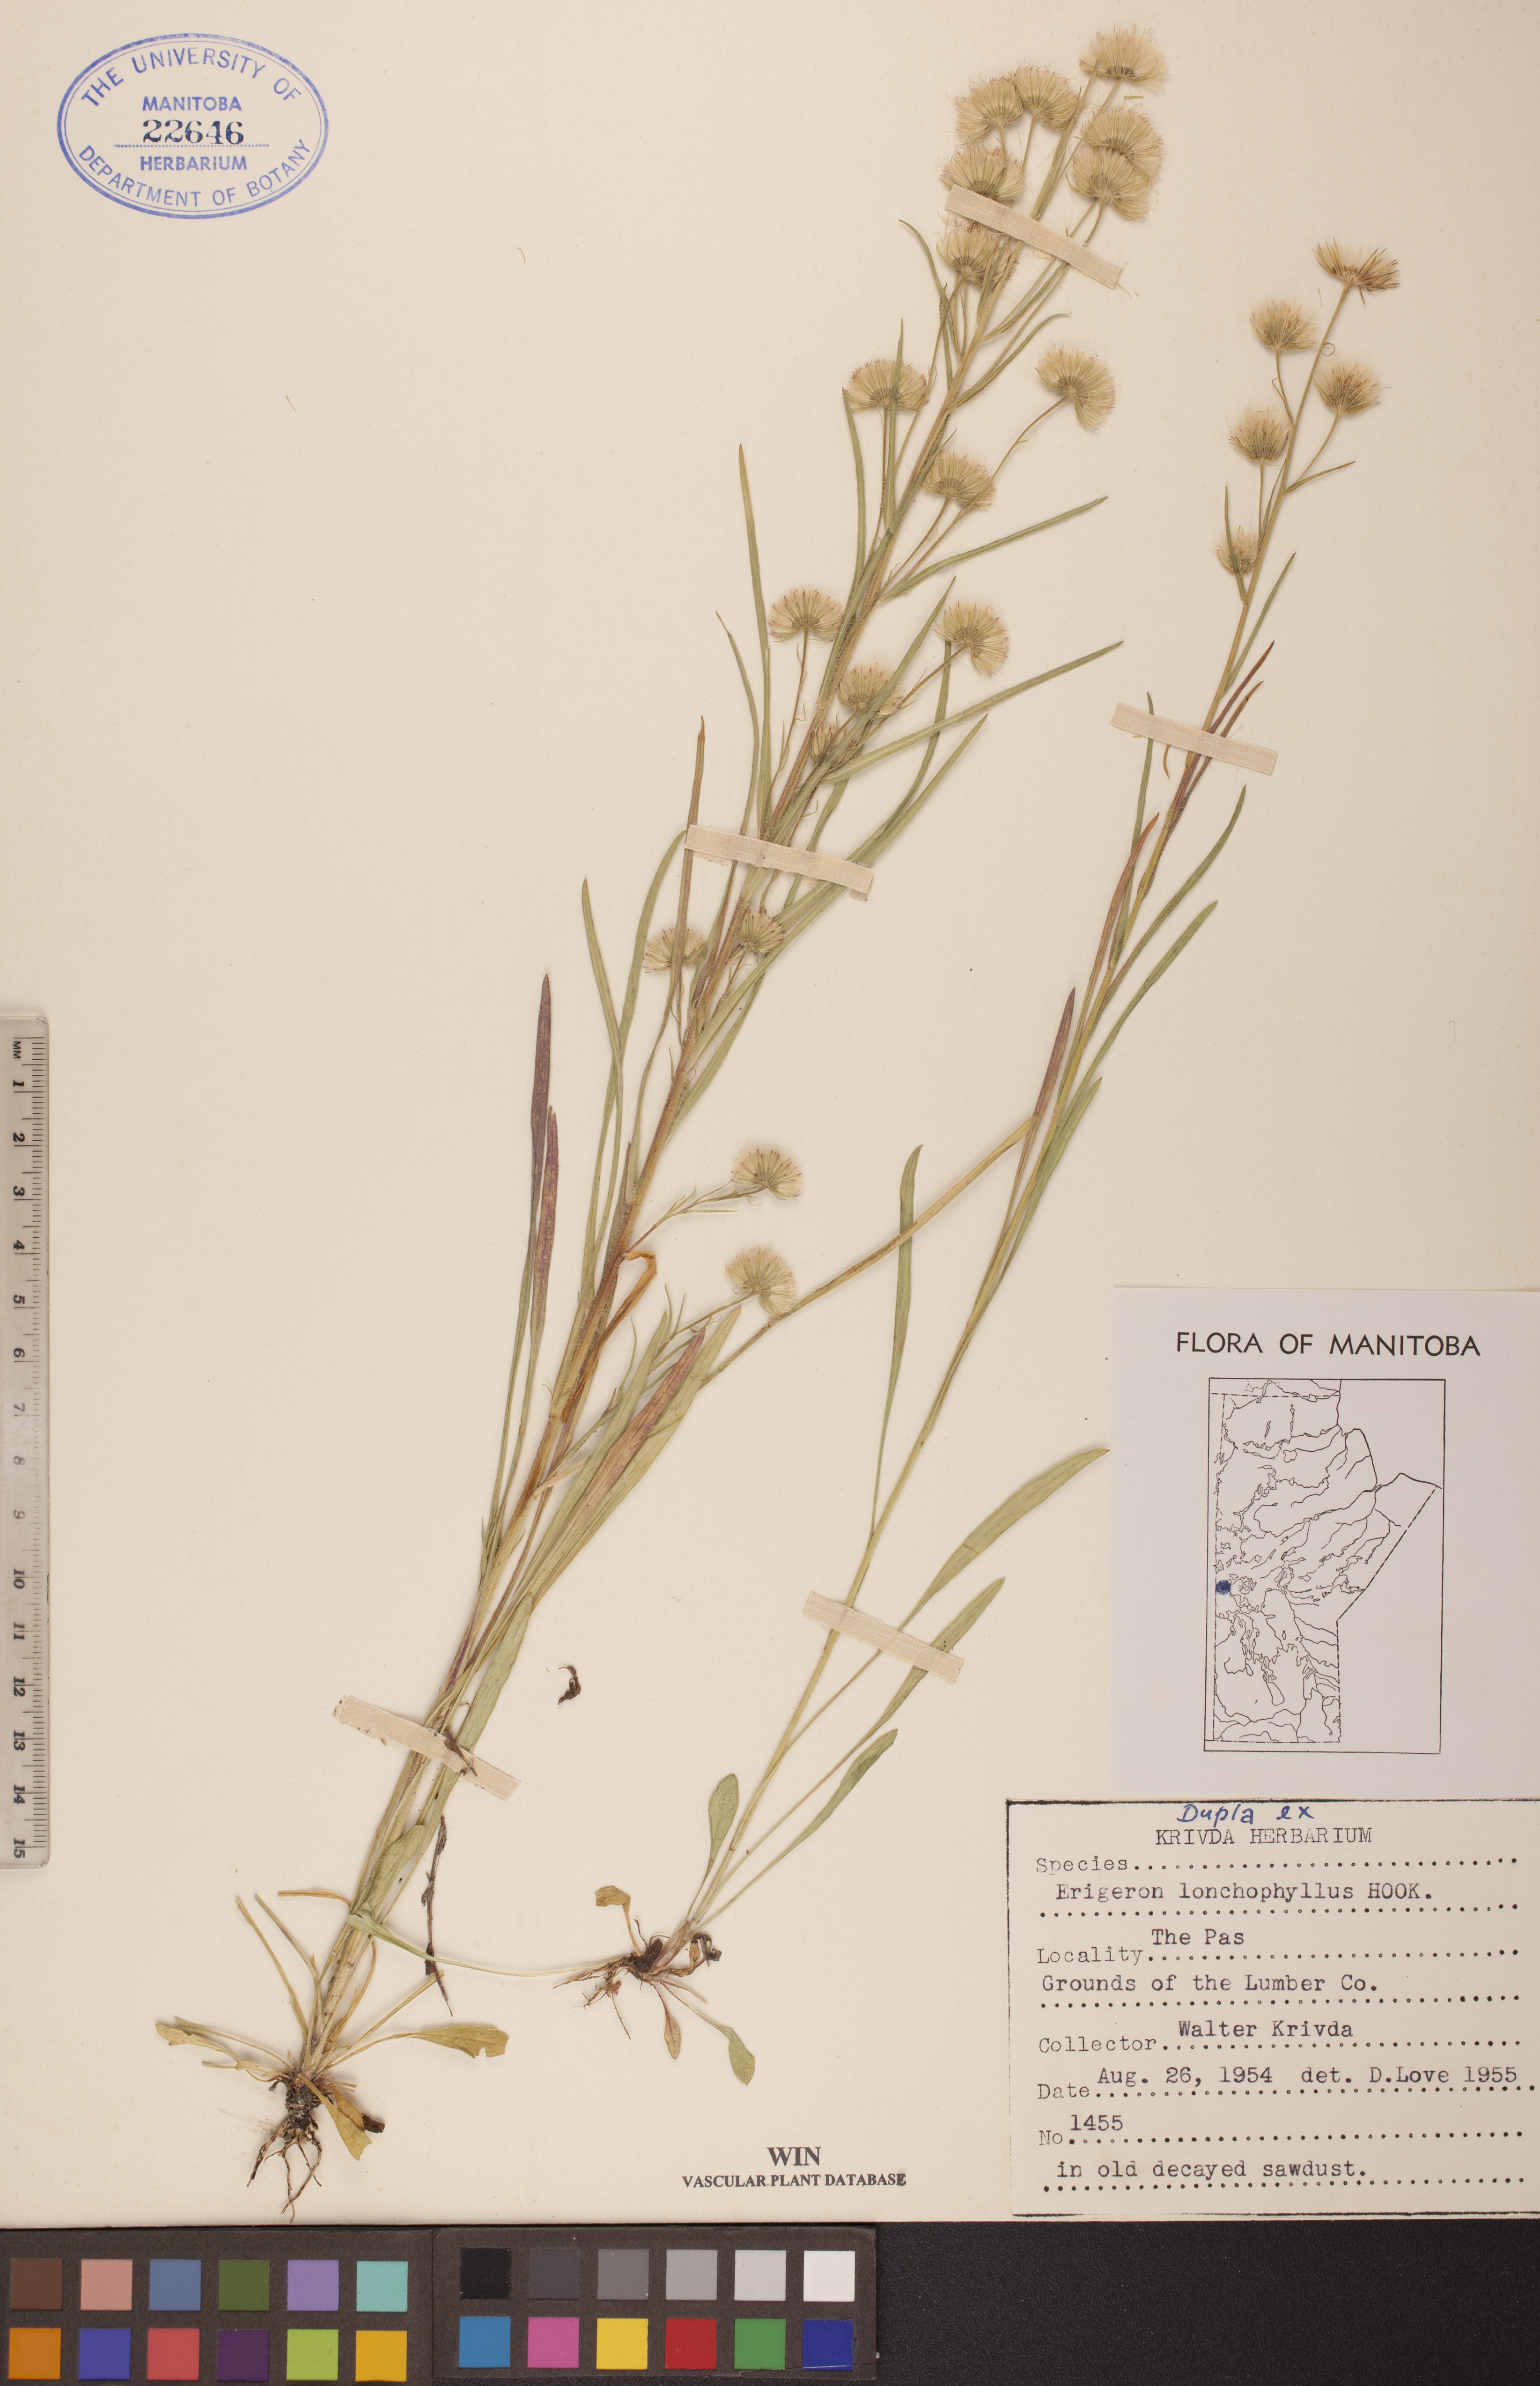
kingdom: Plantae
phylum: Tracheophyta
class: Magnoliopsida
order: Asterales
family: Asteraceae
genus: Erigeron
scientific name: Erigeron lonchophyllus
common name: Short-ray fleabane
